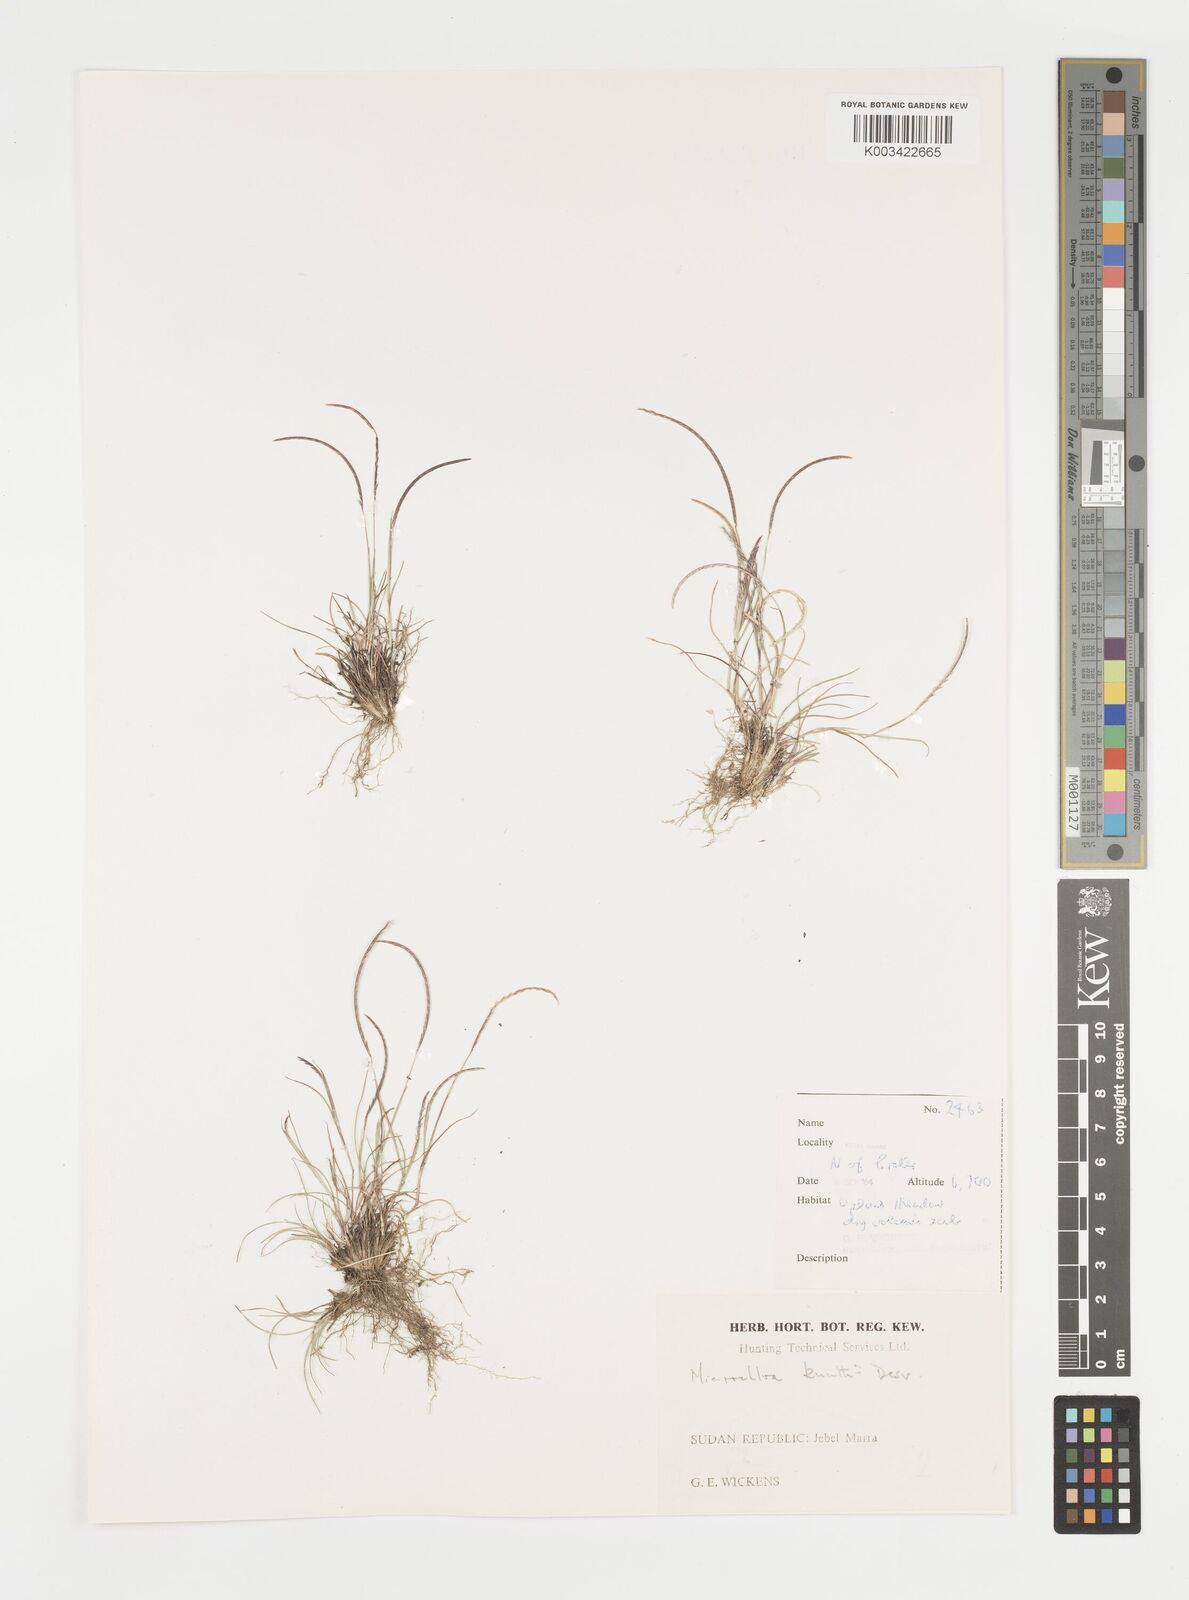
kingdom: Plantae
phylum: Tracheophyta
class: Liliopsida
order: Poales
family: Poaceae
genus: Microchloa
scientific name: Microchloa kunthii
